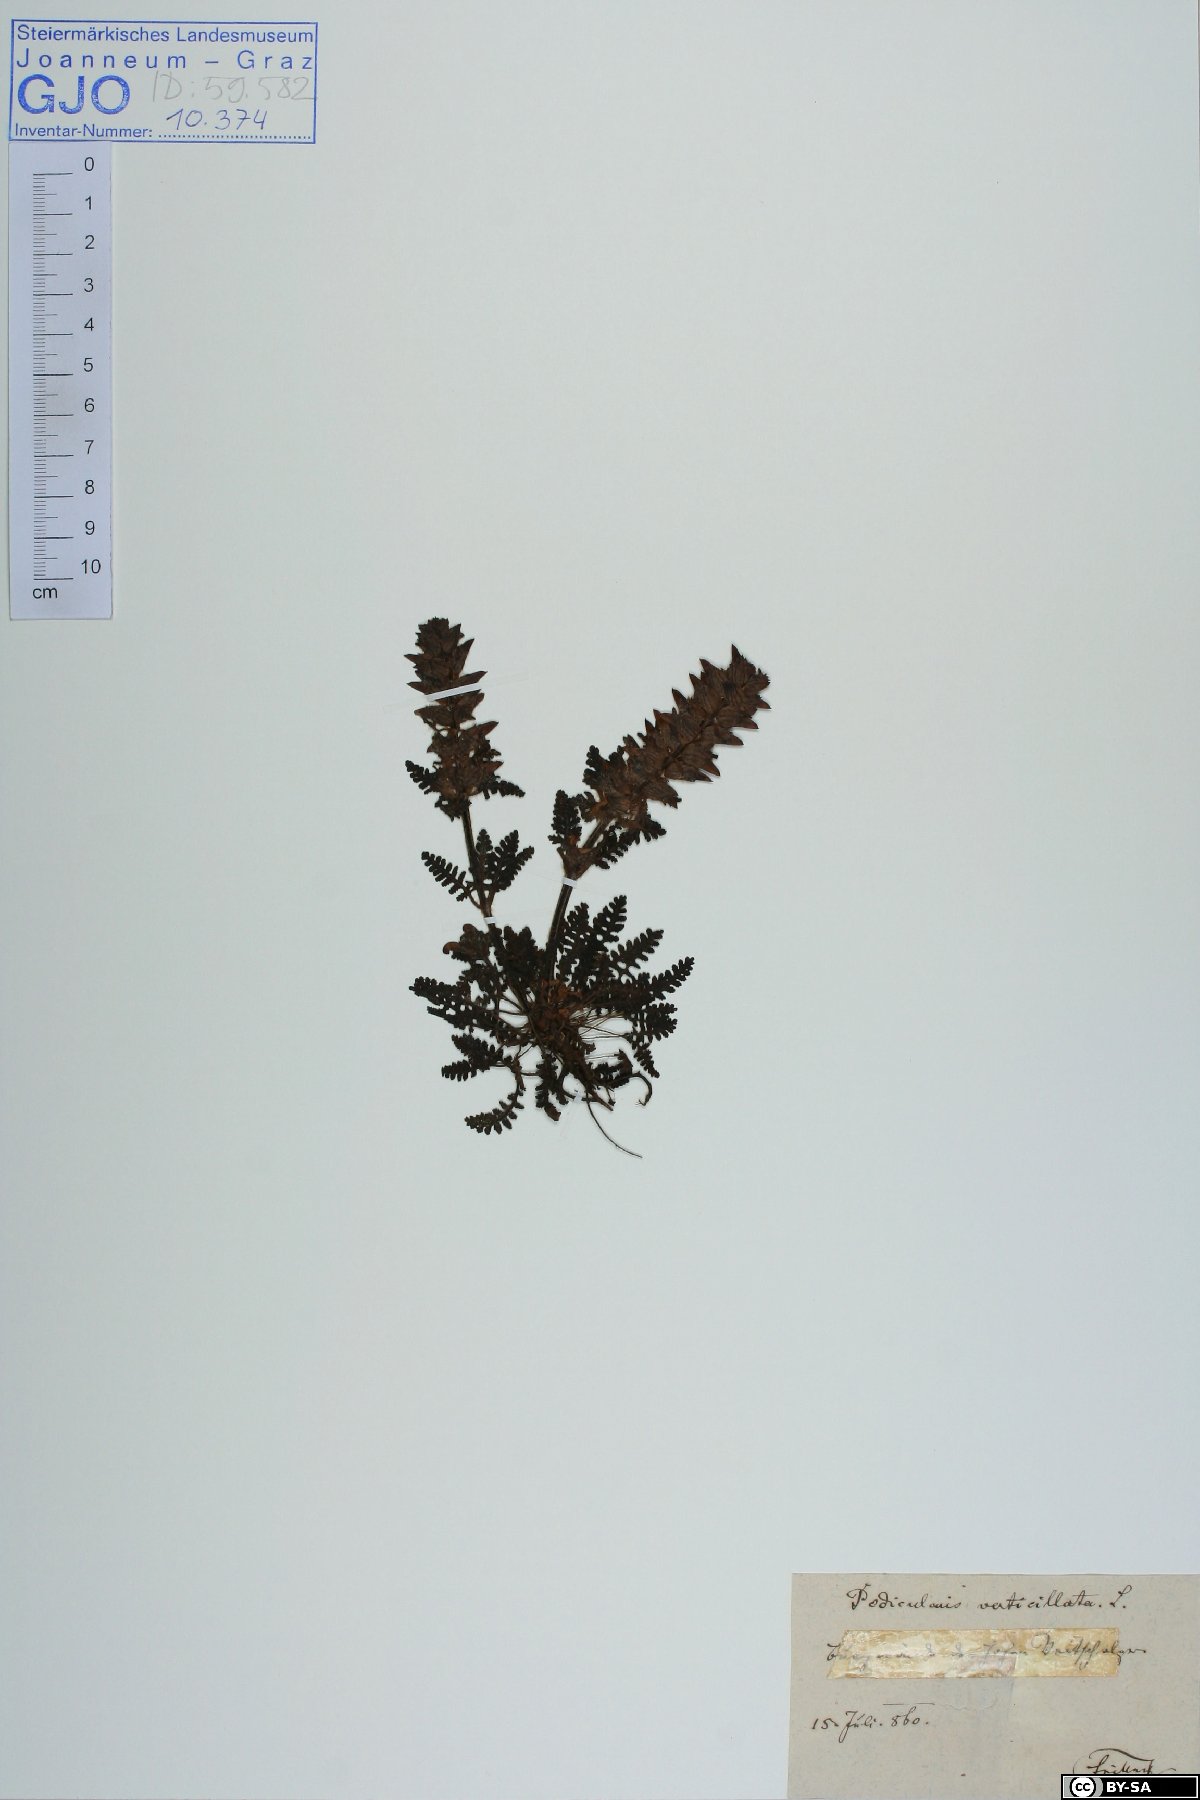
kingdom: Plantae
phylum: Tracheophyta
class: Magnoliopsida
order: Lamiales
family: Orobanchaceae
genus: Pedicularis
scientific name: Pedicularis verticillata
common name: Whorled lousewort
